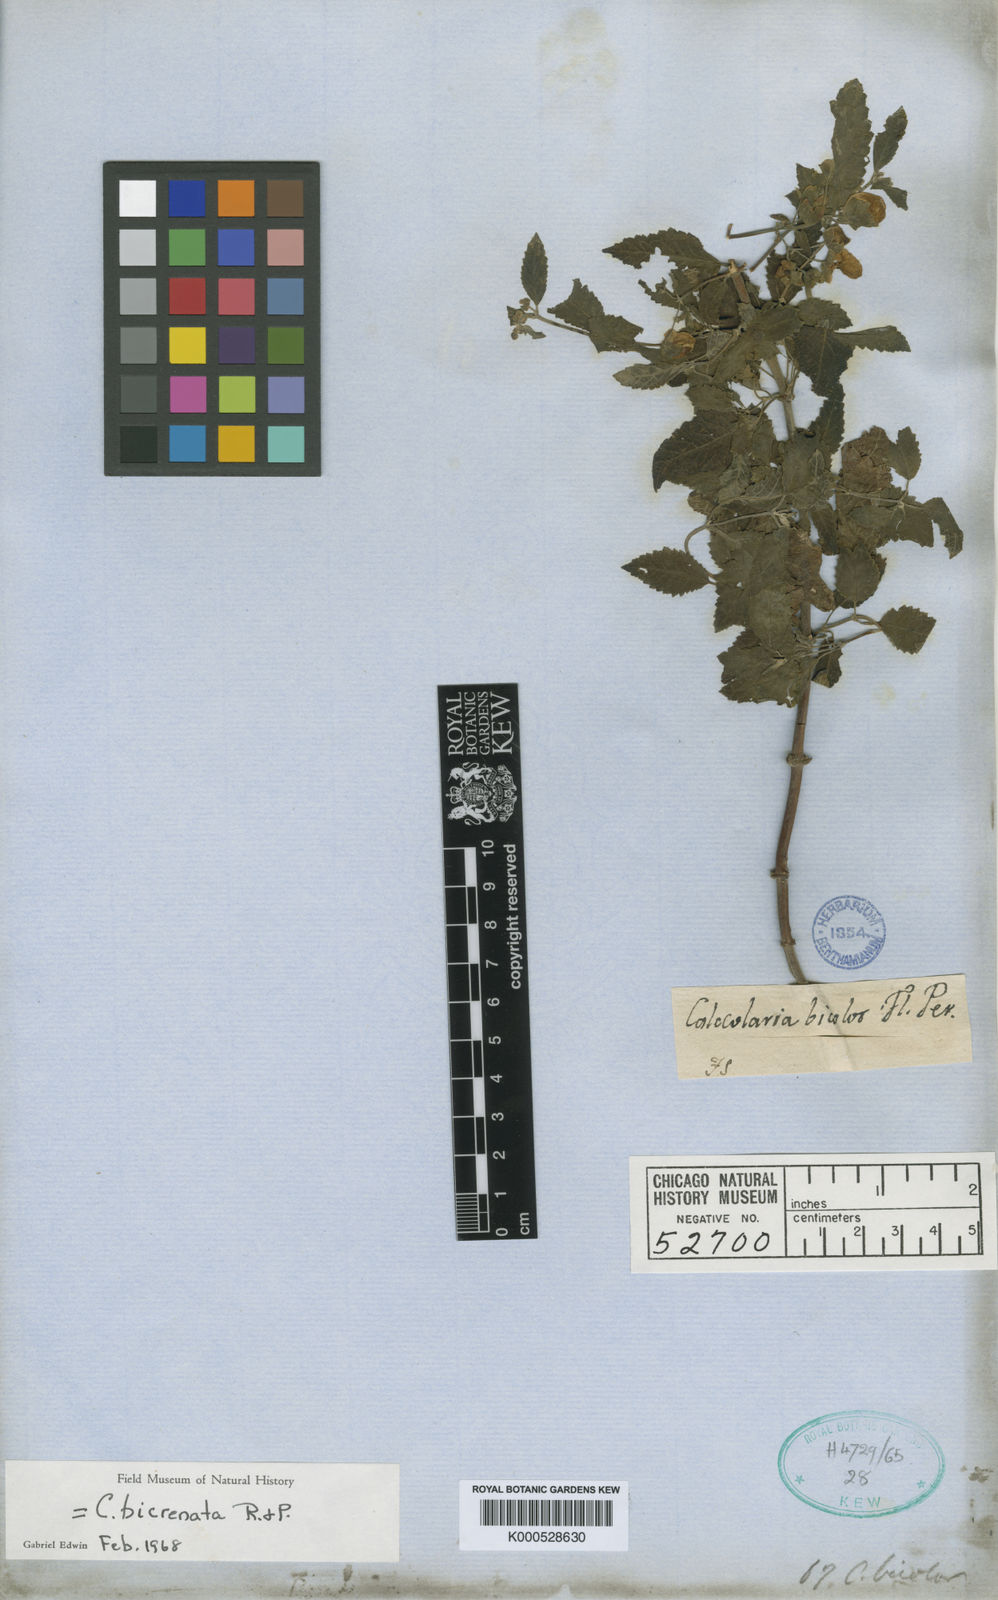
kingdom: Plantae
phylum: Tracheophyta
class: Magnoliopsida
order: Lamiales
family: Calceolariaceae
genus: Calceolaria
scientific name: Calceolaria bicolor
